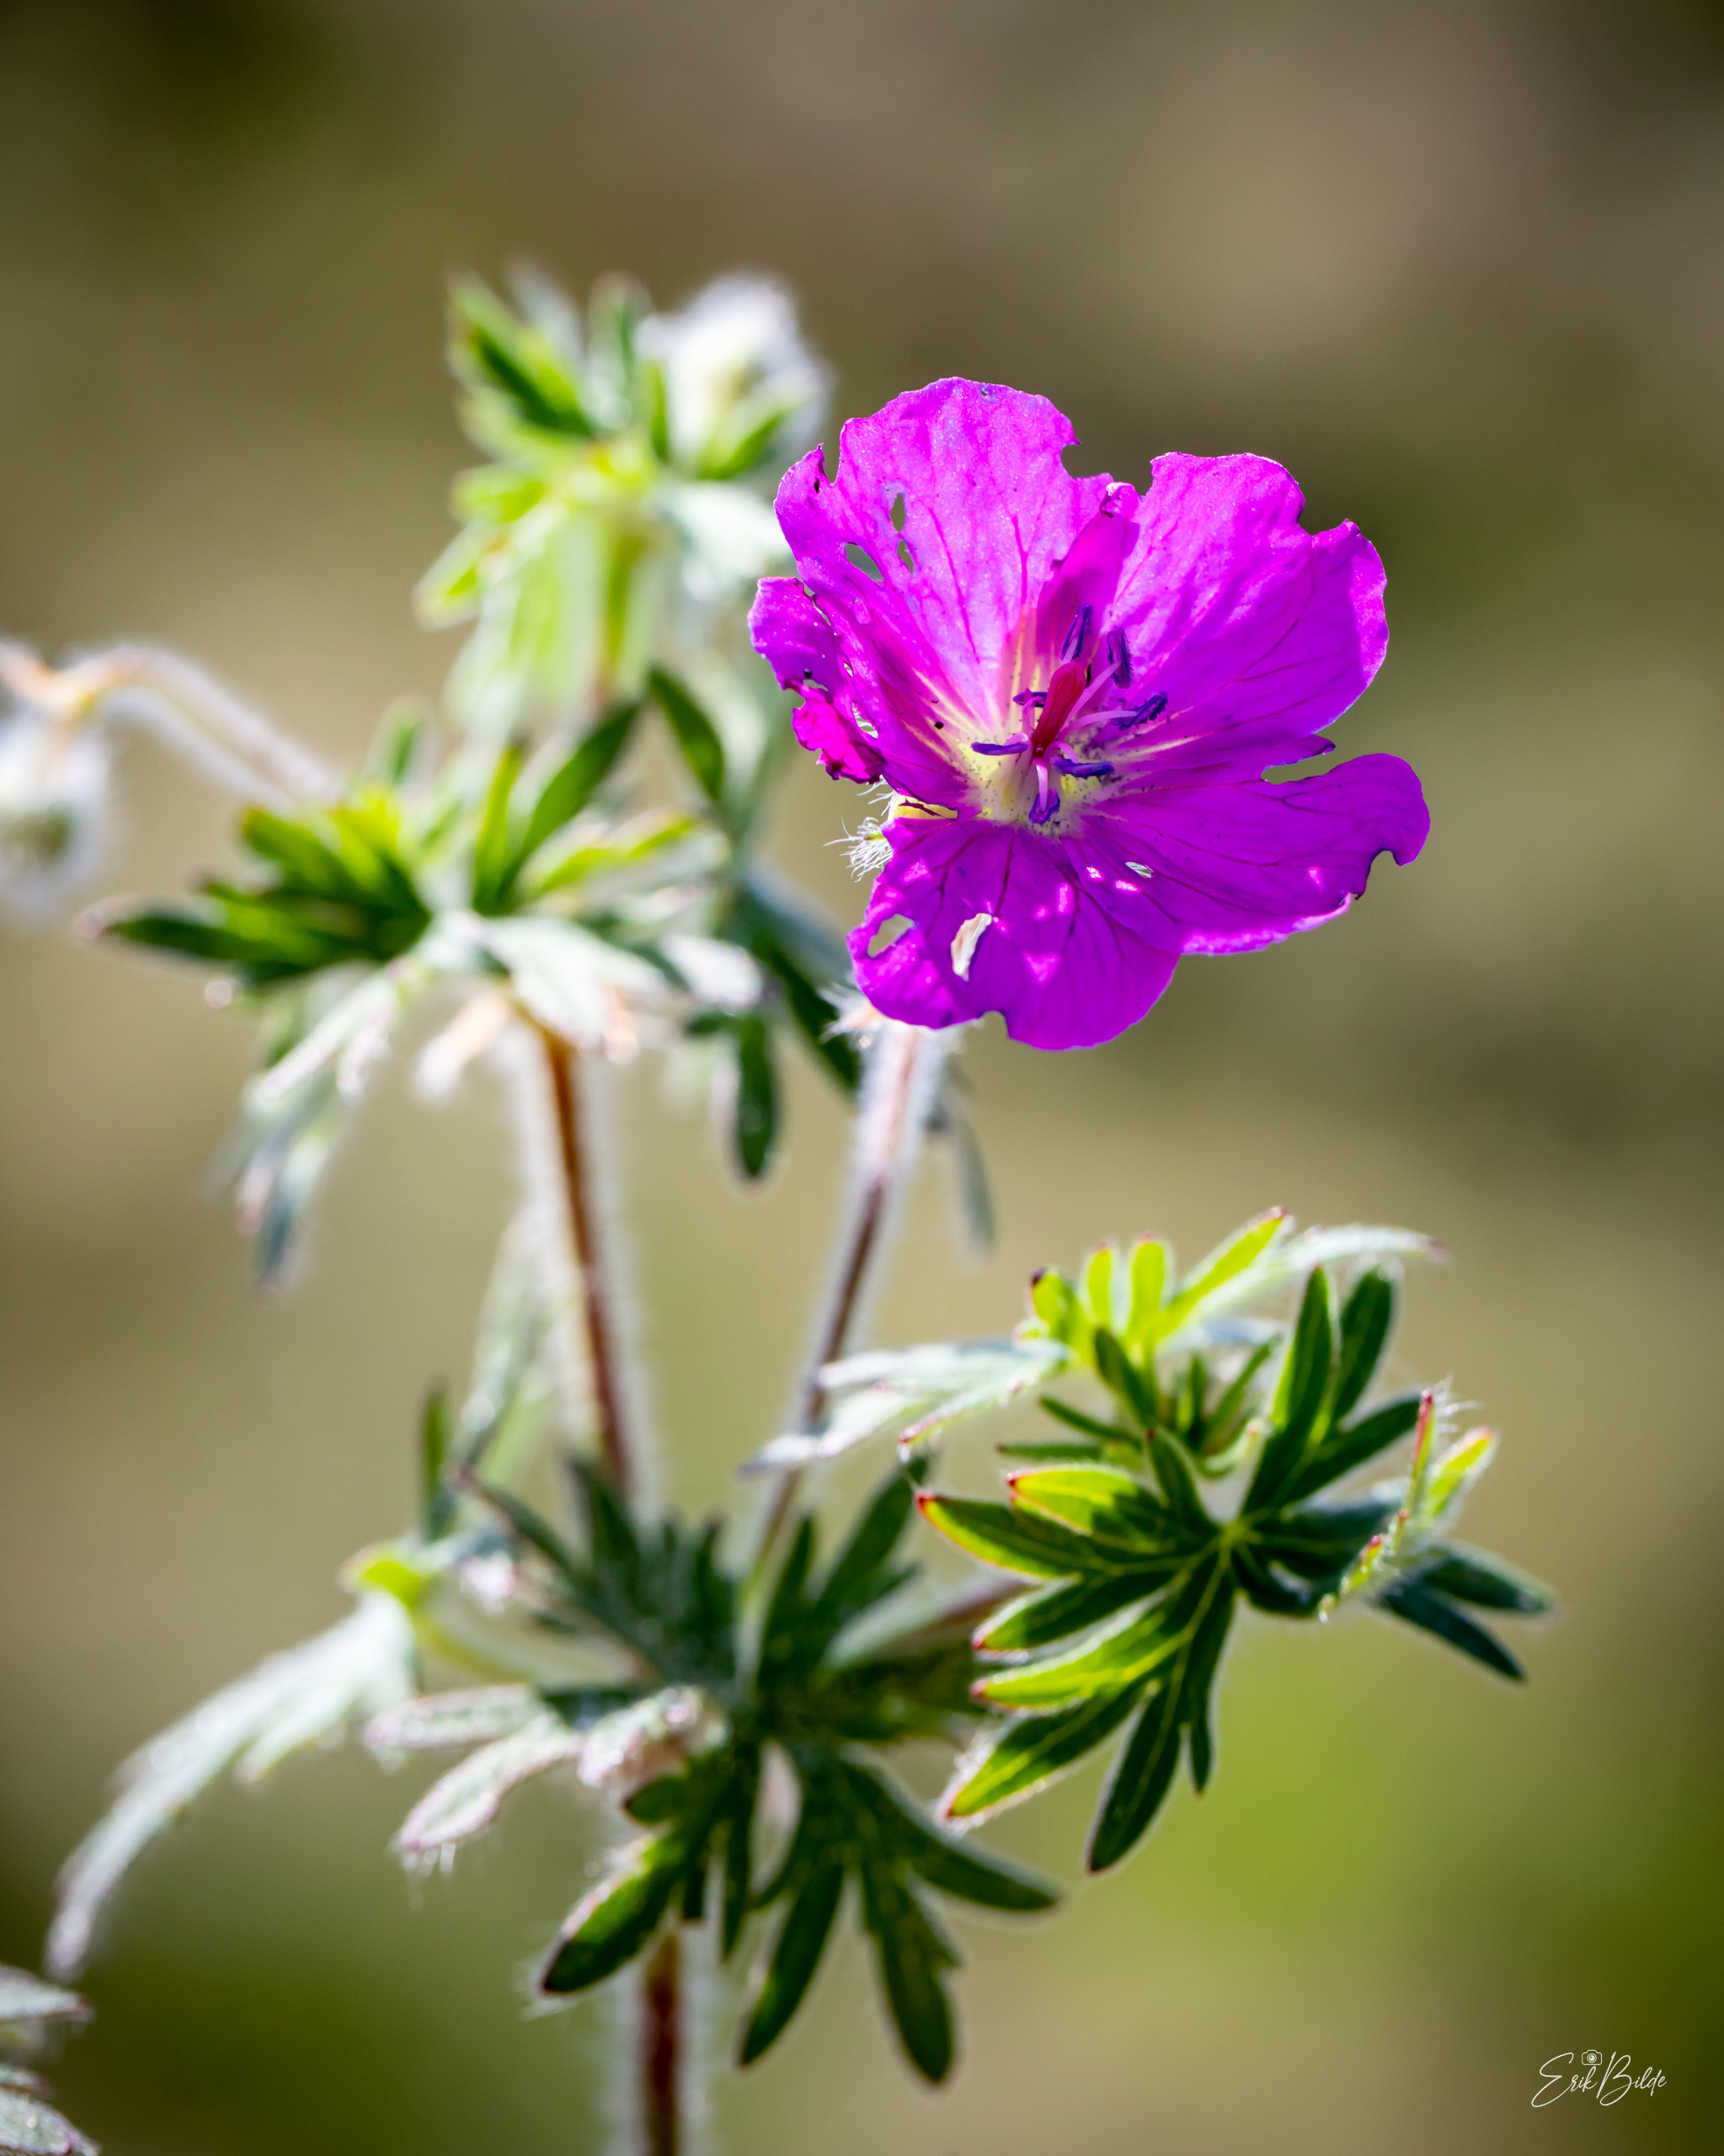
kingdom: Plantae
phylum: Tracheophyta
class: Magnoliopsida
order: Geraniales
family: Geraniaceae
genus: Geranium
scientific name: Geranium sanguineum
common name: Blodrød storkenæb
